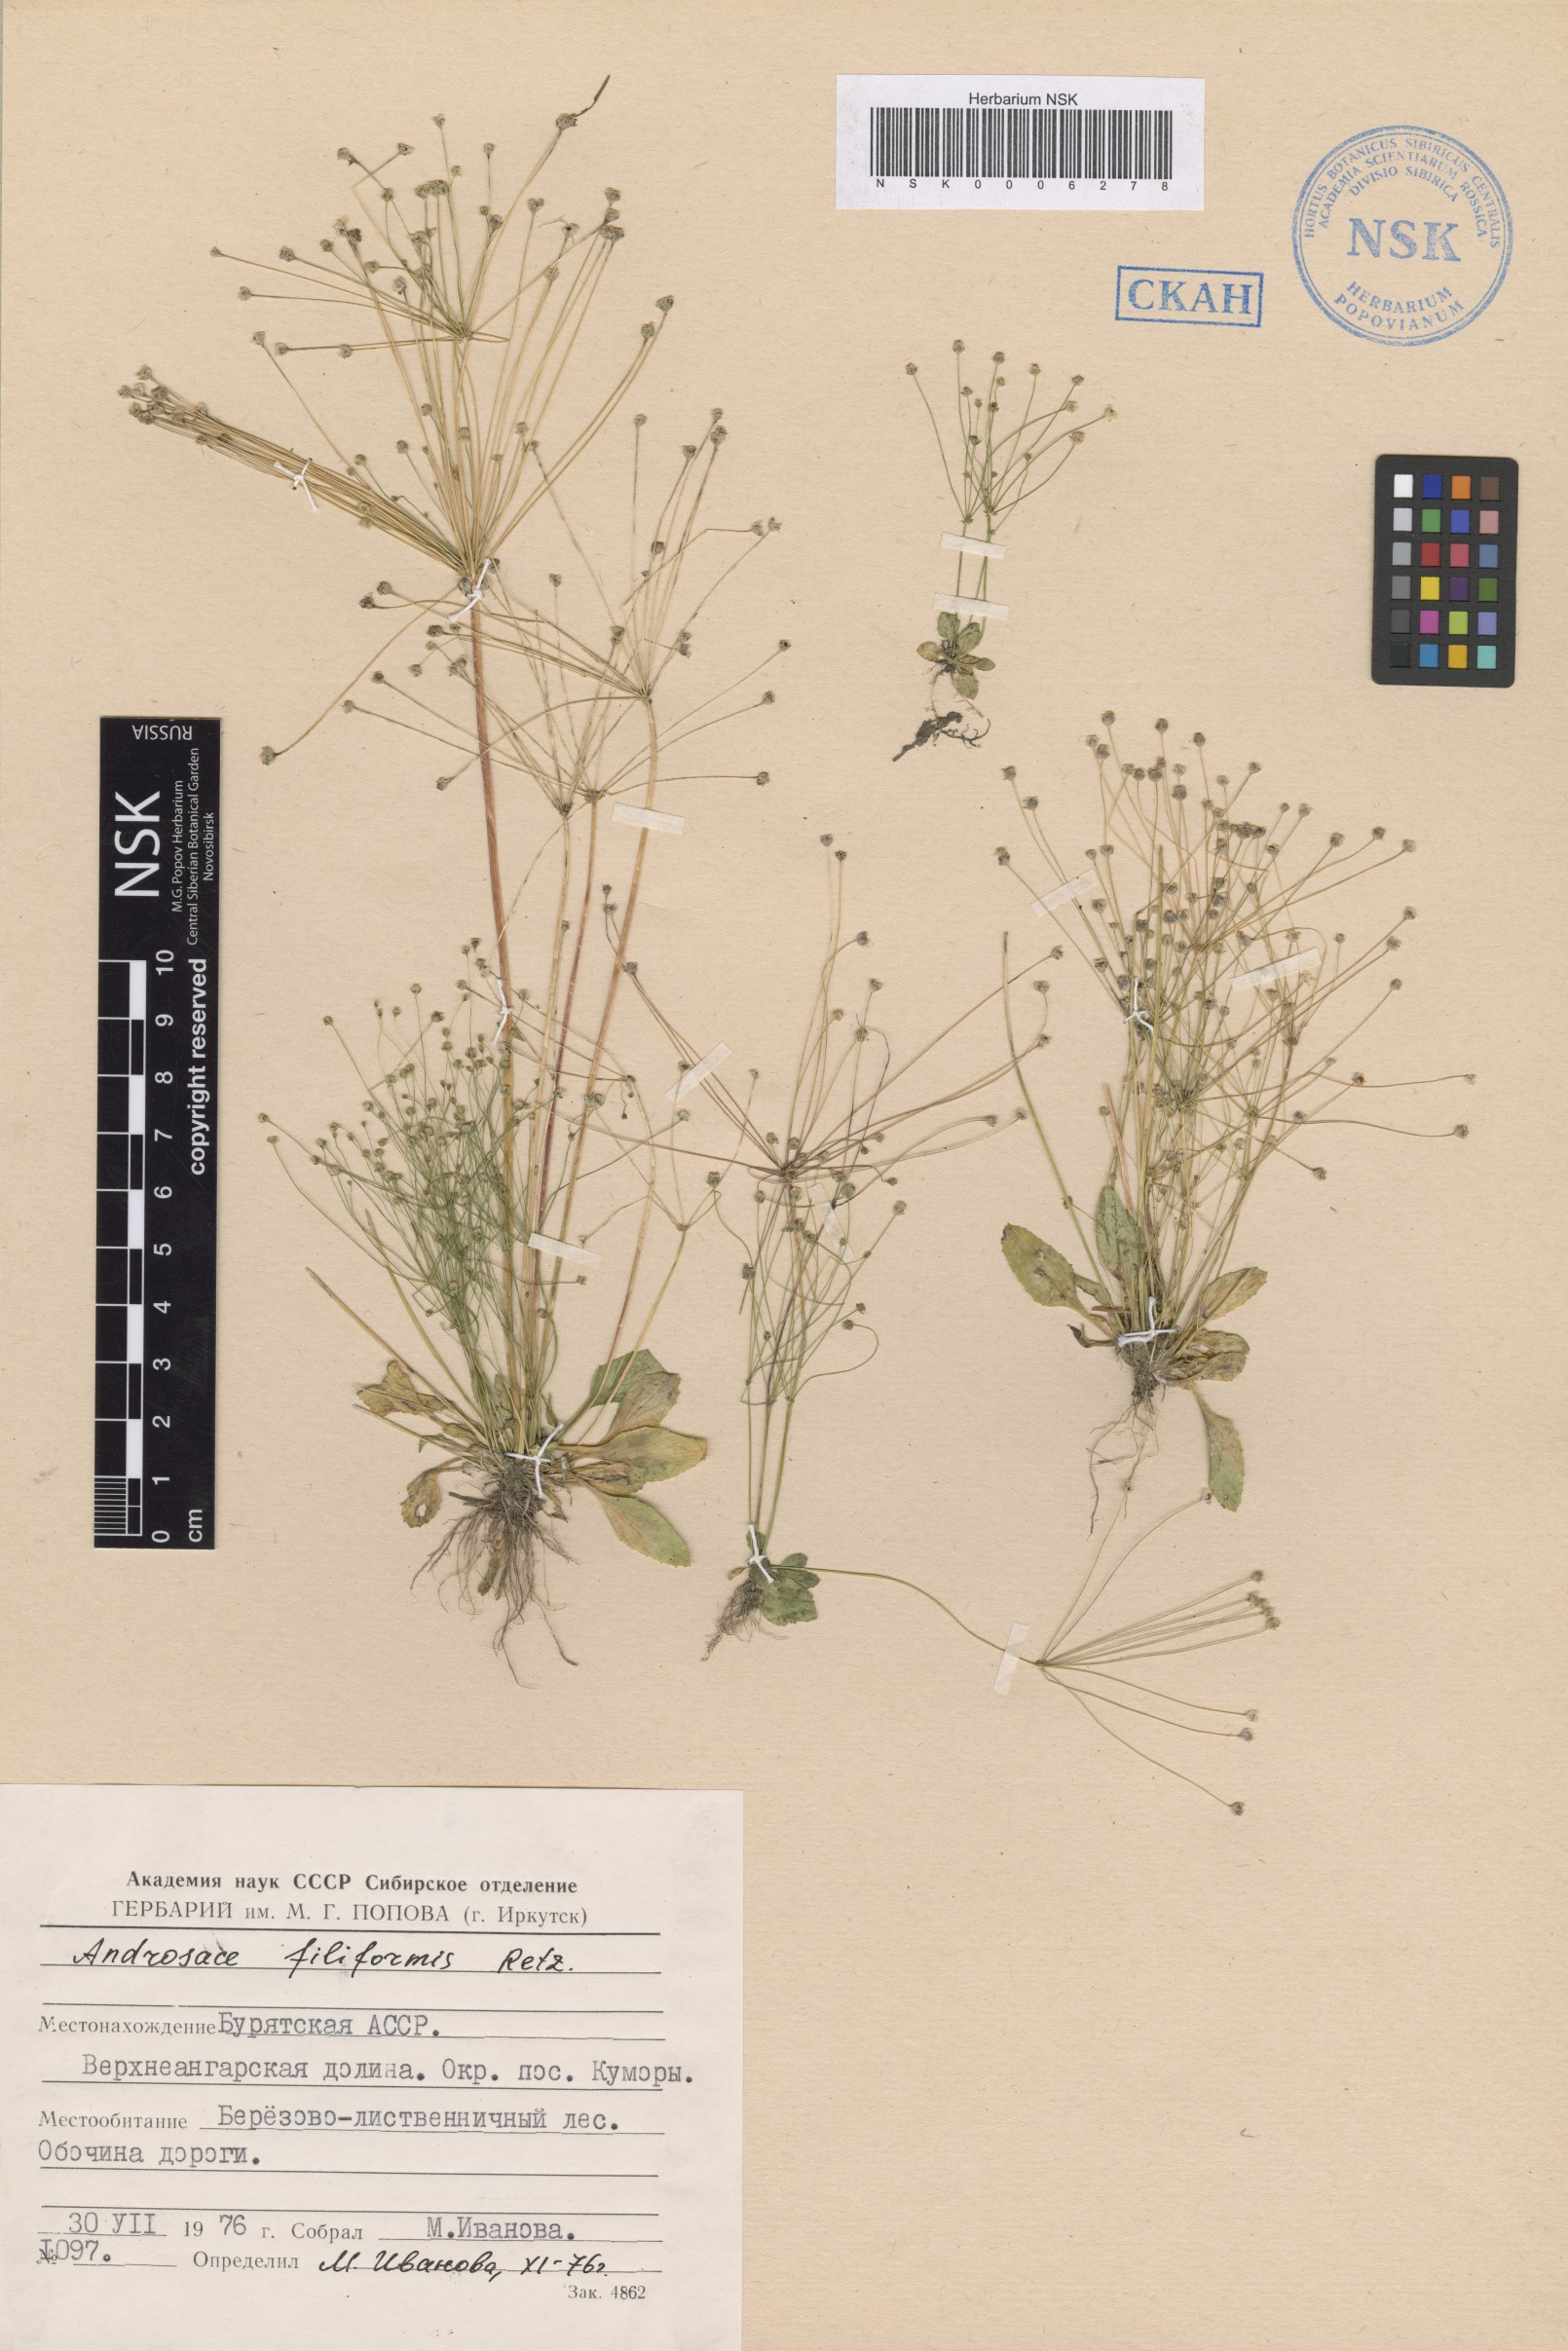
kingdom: Plantae
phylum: Tracheophyta
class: Magnoliopsida
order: Ericales
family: Primulaceae
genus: Androsace
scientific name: Androsace filiformis
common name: Filiform rock jasmine
